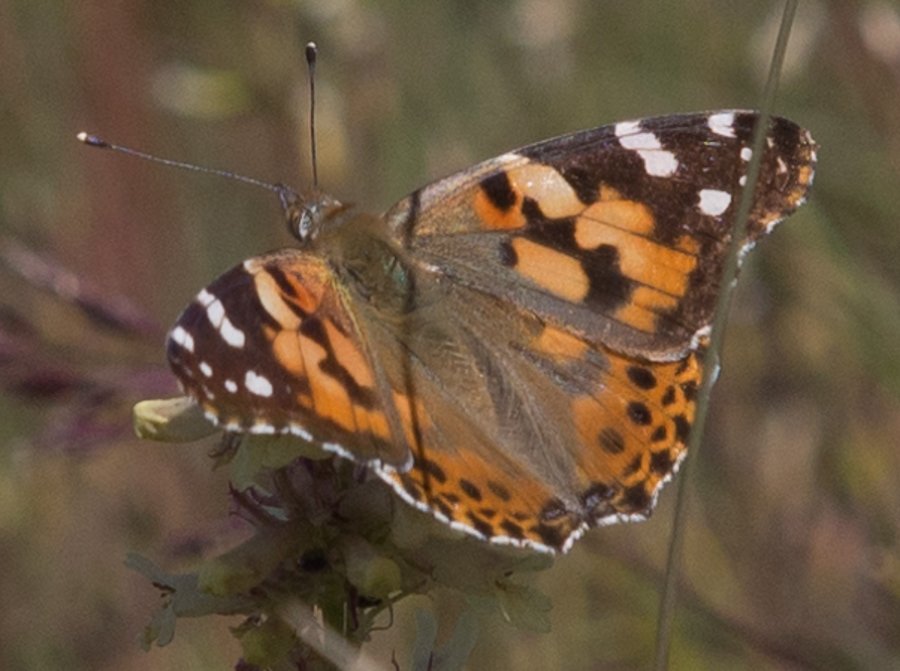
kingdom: Animalia
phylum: Arthropoda
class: Insecta
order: Lepidoptera
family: Nymphalidae
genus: Vanessa
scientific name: Vanessa cardui
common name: Painted Lady
